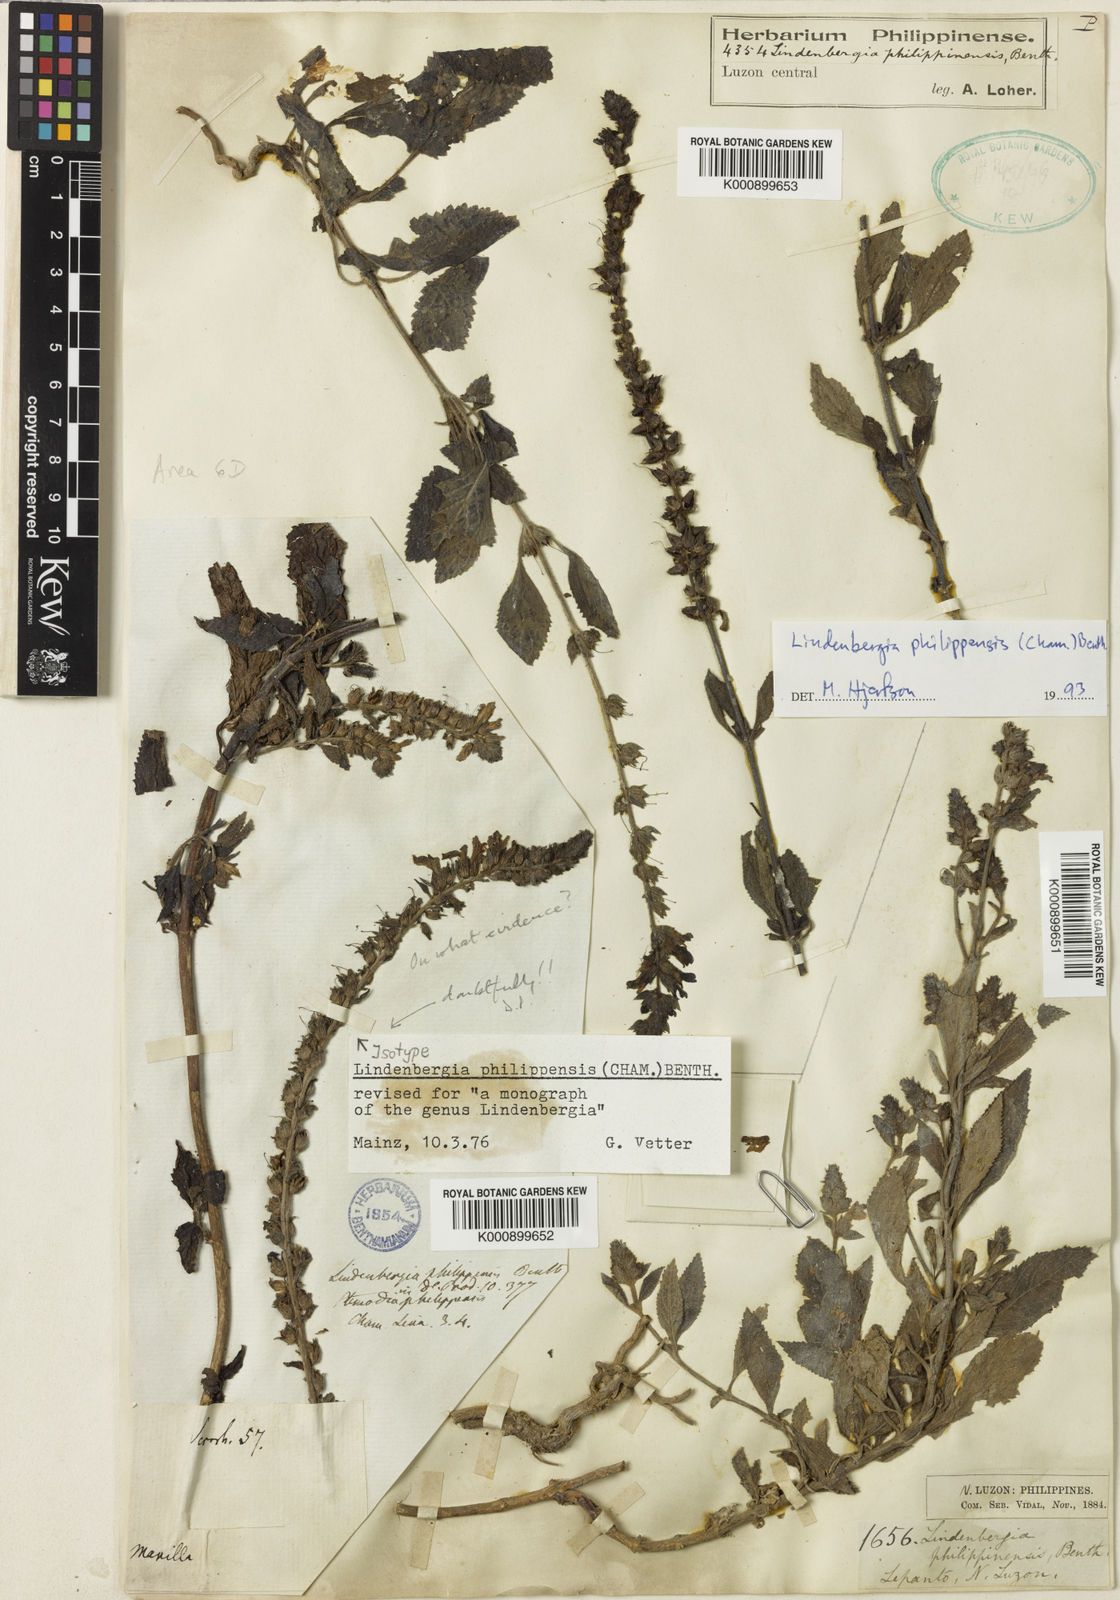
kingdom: Plantae
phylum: Tracheophyta
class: Magnoliopsida
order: Lamiales
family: Orobanchaceae
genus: Lindenbergia
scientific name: Lindenbergia philippensis
